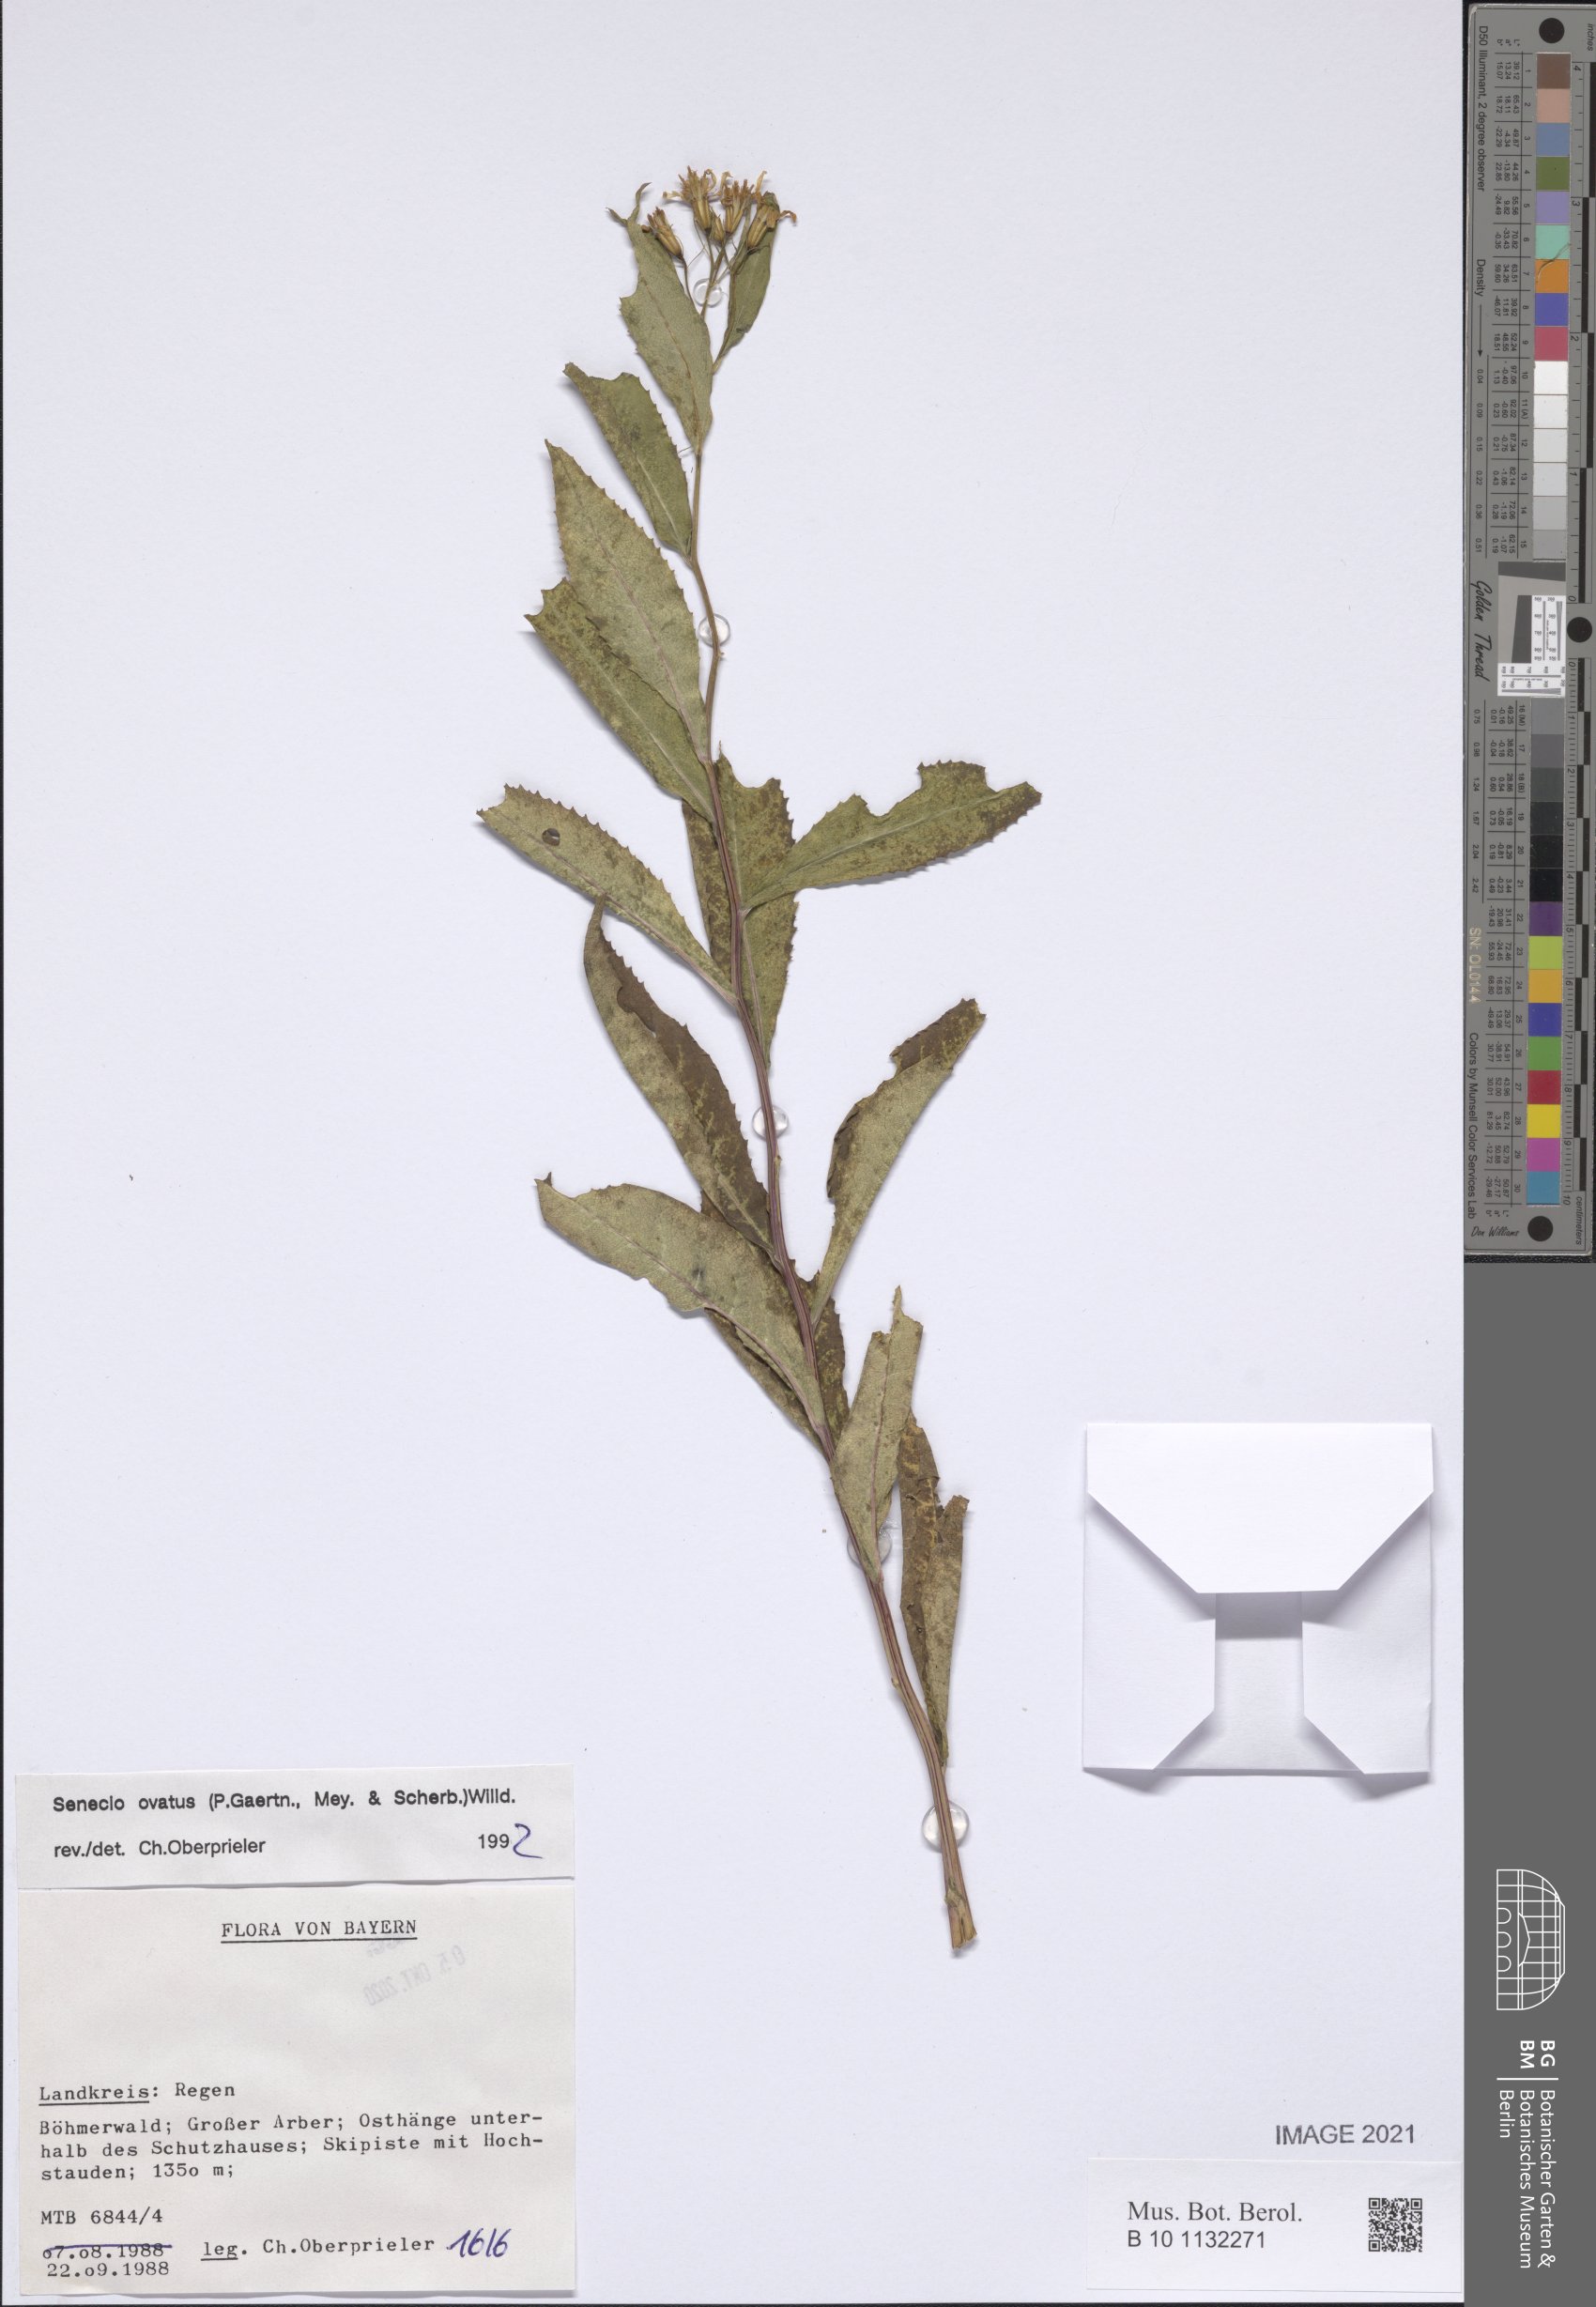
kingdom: Plantae
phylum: Tracheophyta
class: Magnoliopsida
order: Asterales
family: Asteraceae
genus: Senecio
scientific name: Senecio ovatus
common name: Wood ragwort
